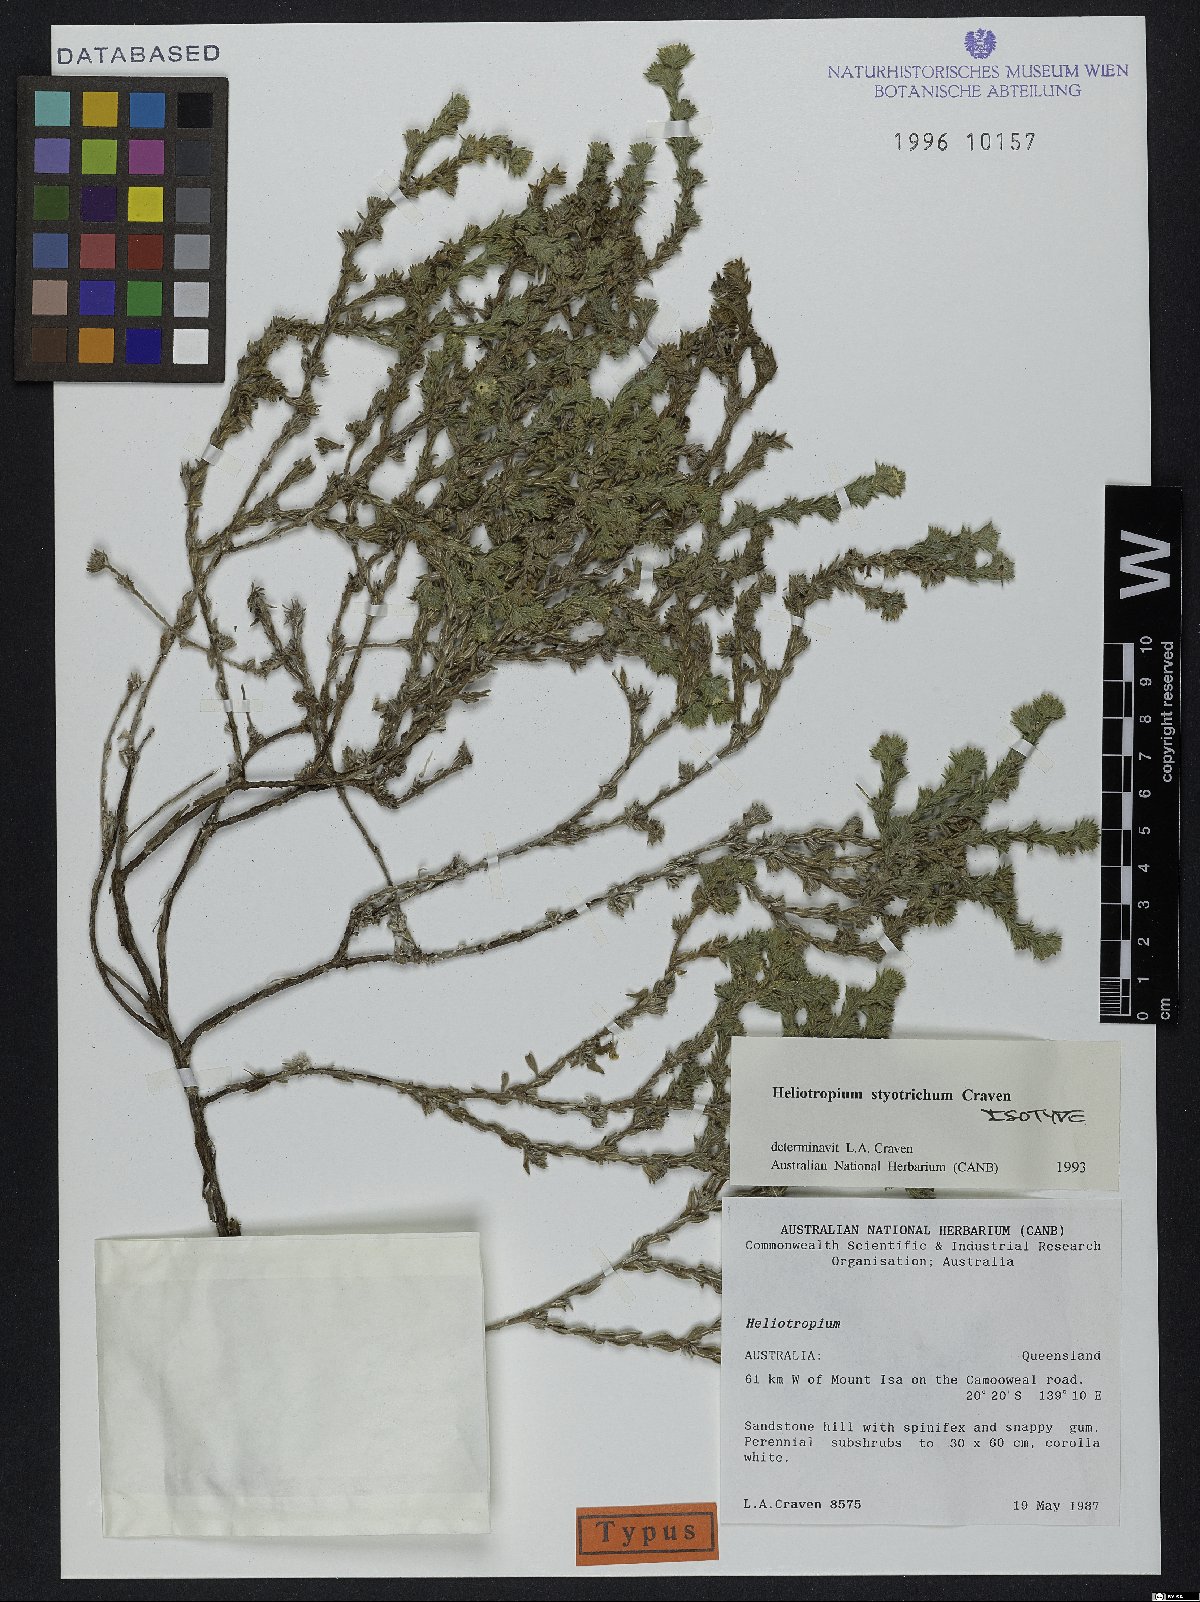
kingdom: Plantae
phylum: Tracheophyta
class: Magnoliopsida
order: Boraginales
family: Heliotropiaceae
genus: Euploca
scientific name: Euploca styotricha
